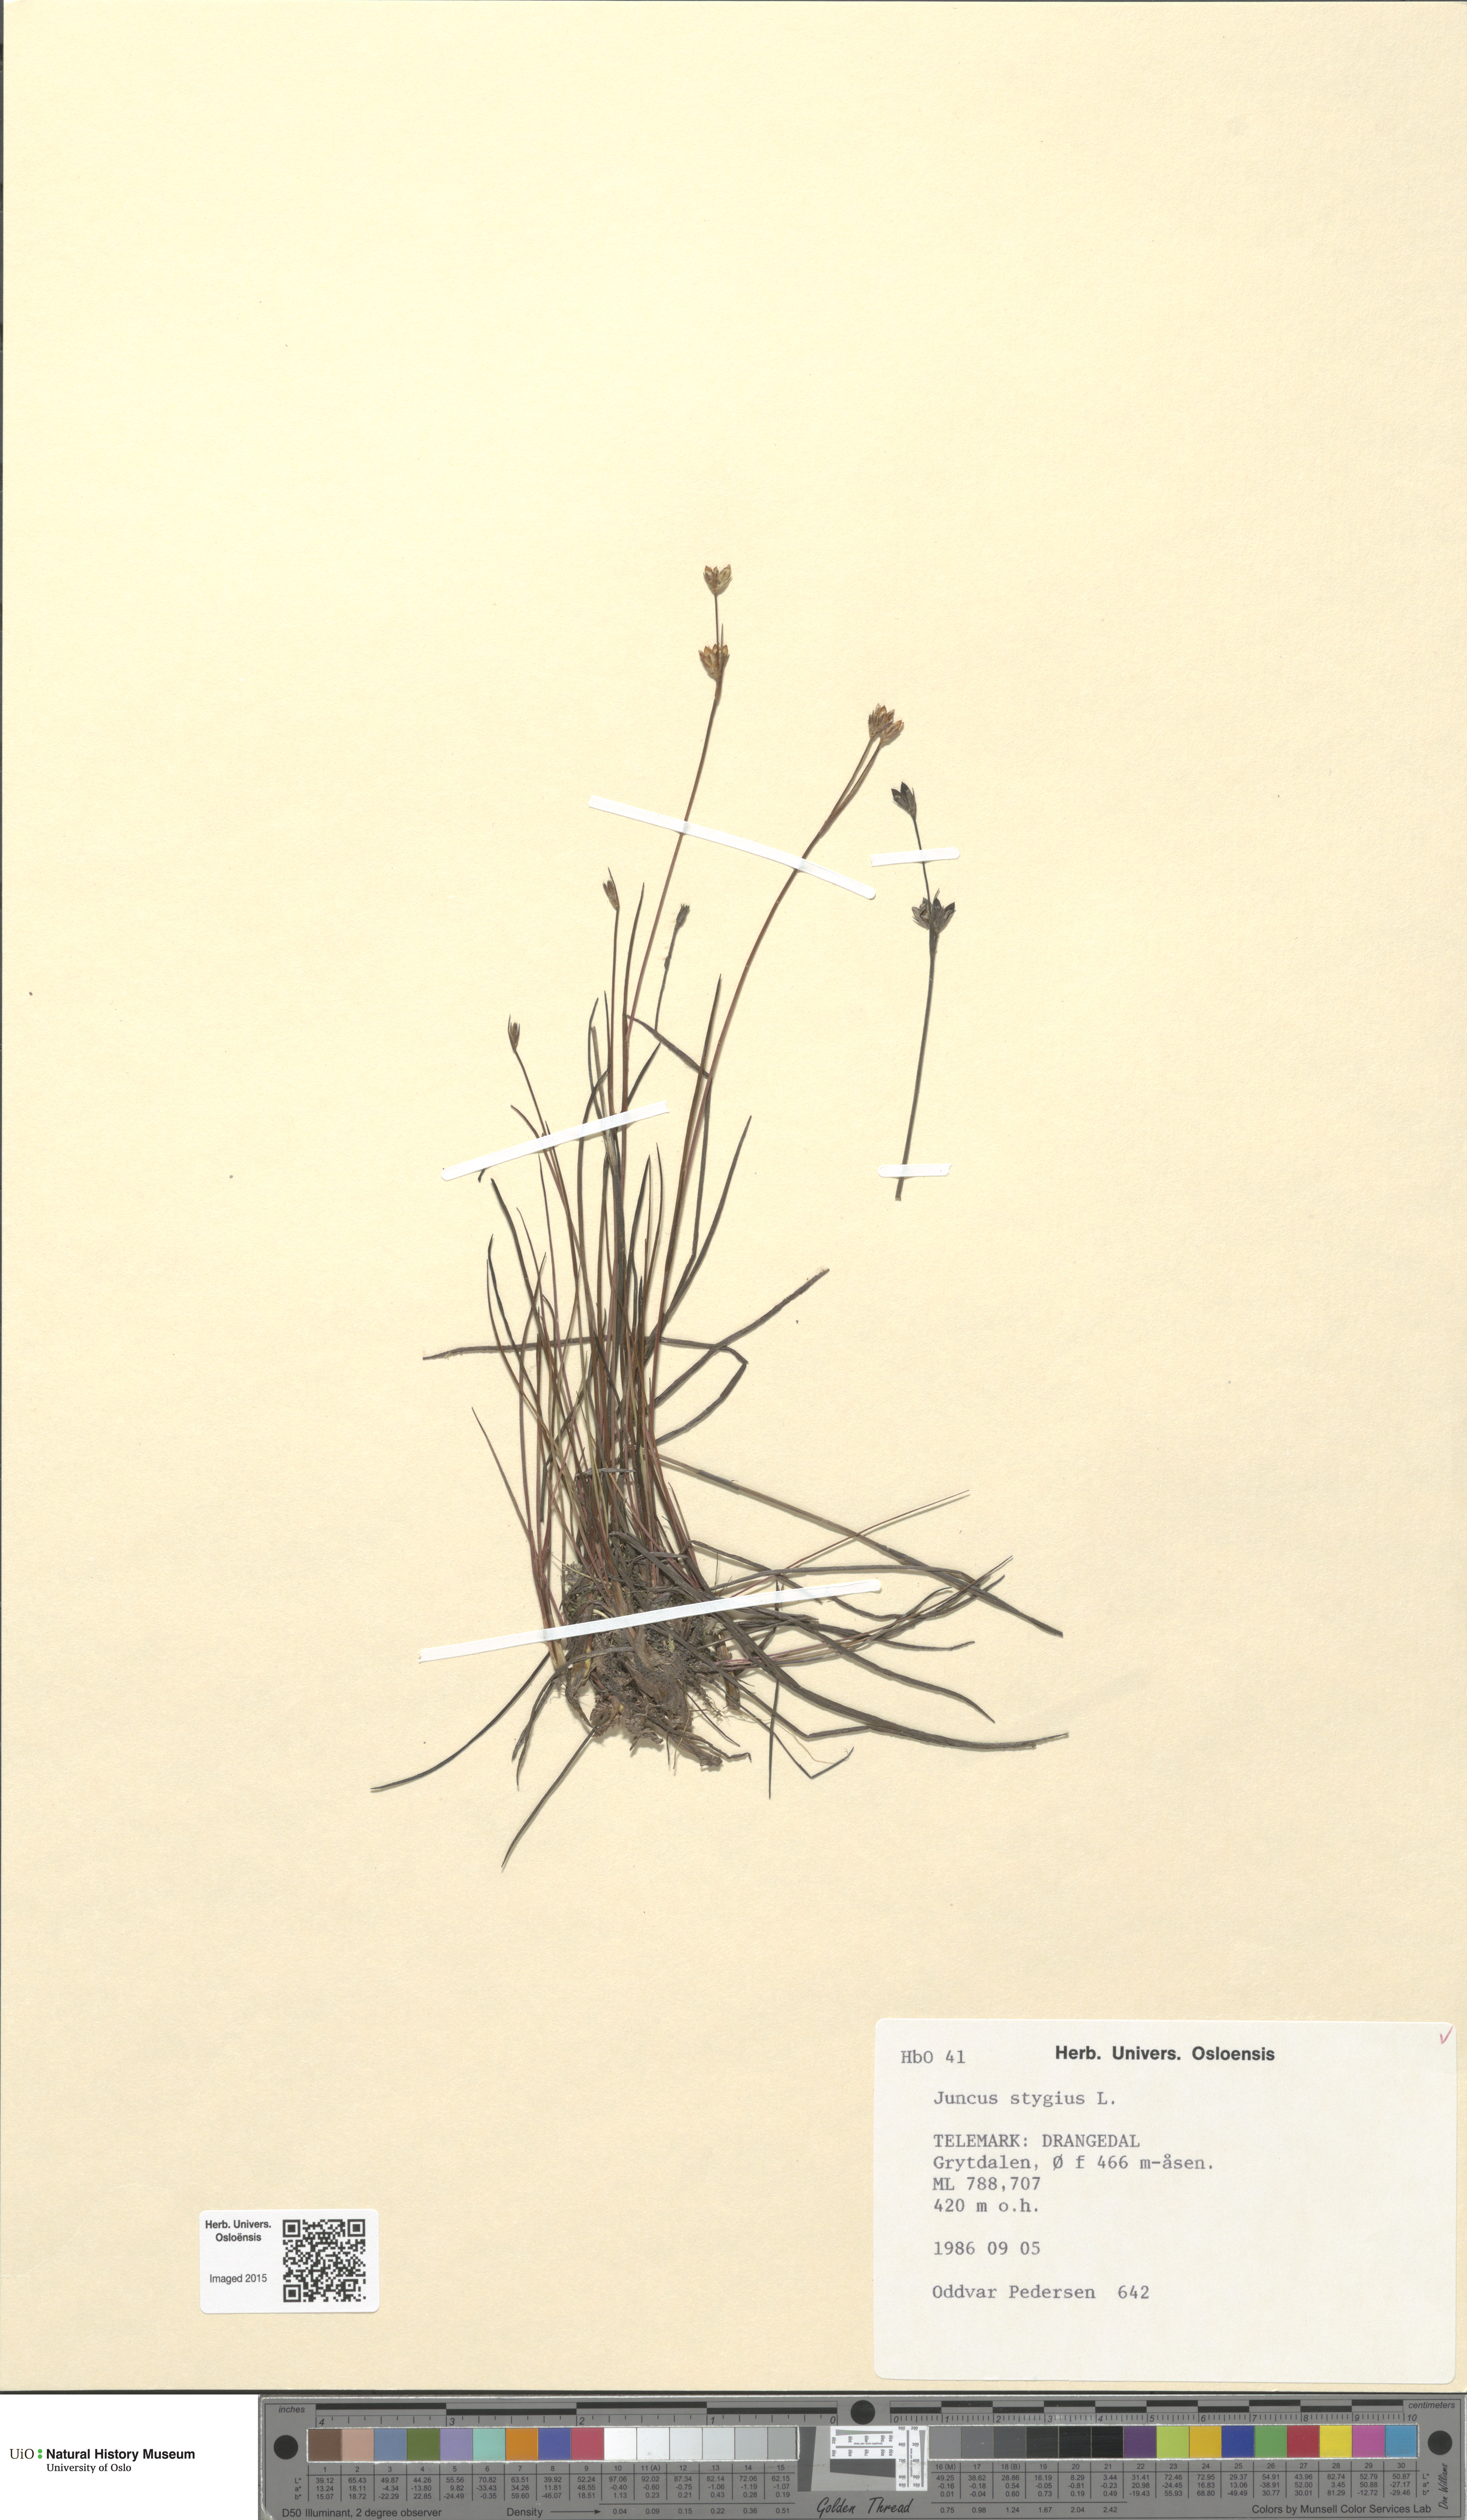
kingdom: Plantae
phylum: Tracheophyta
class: Liliopsida
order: Poales
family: Juncaceae
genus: Juncus
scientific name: Juncus stygius
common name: Bog rush
